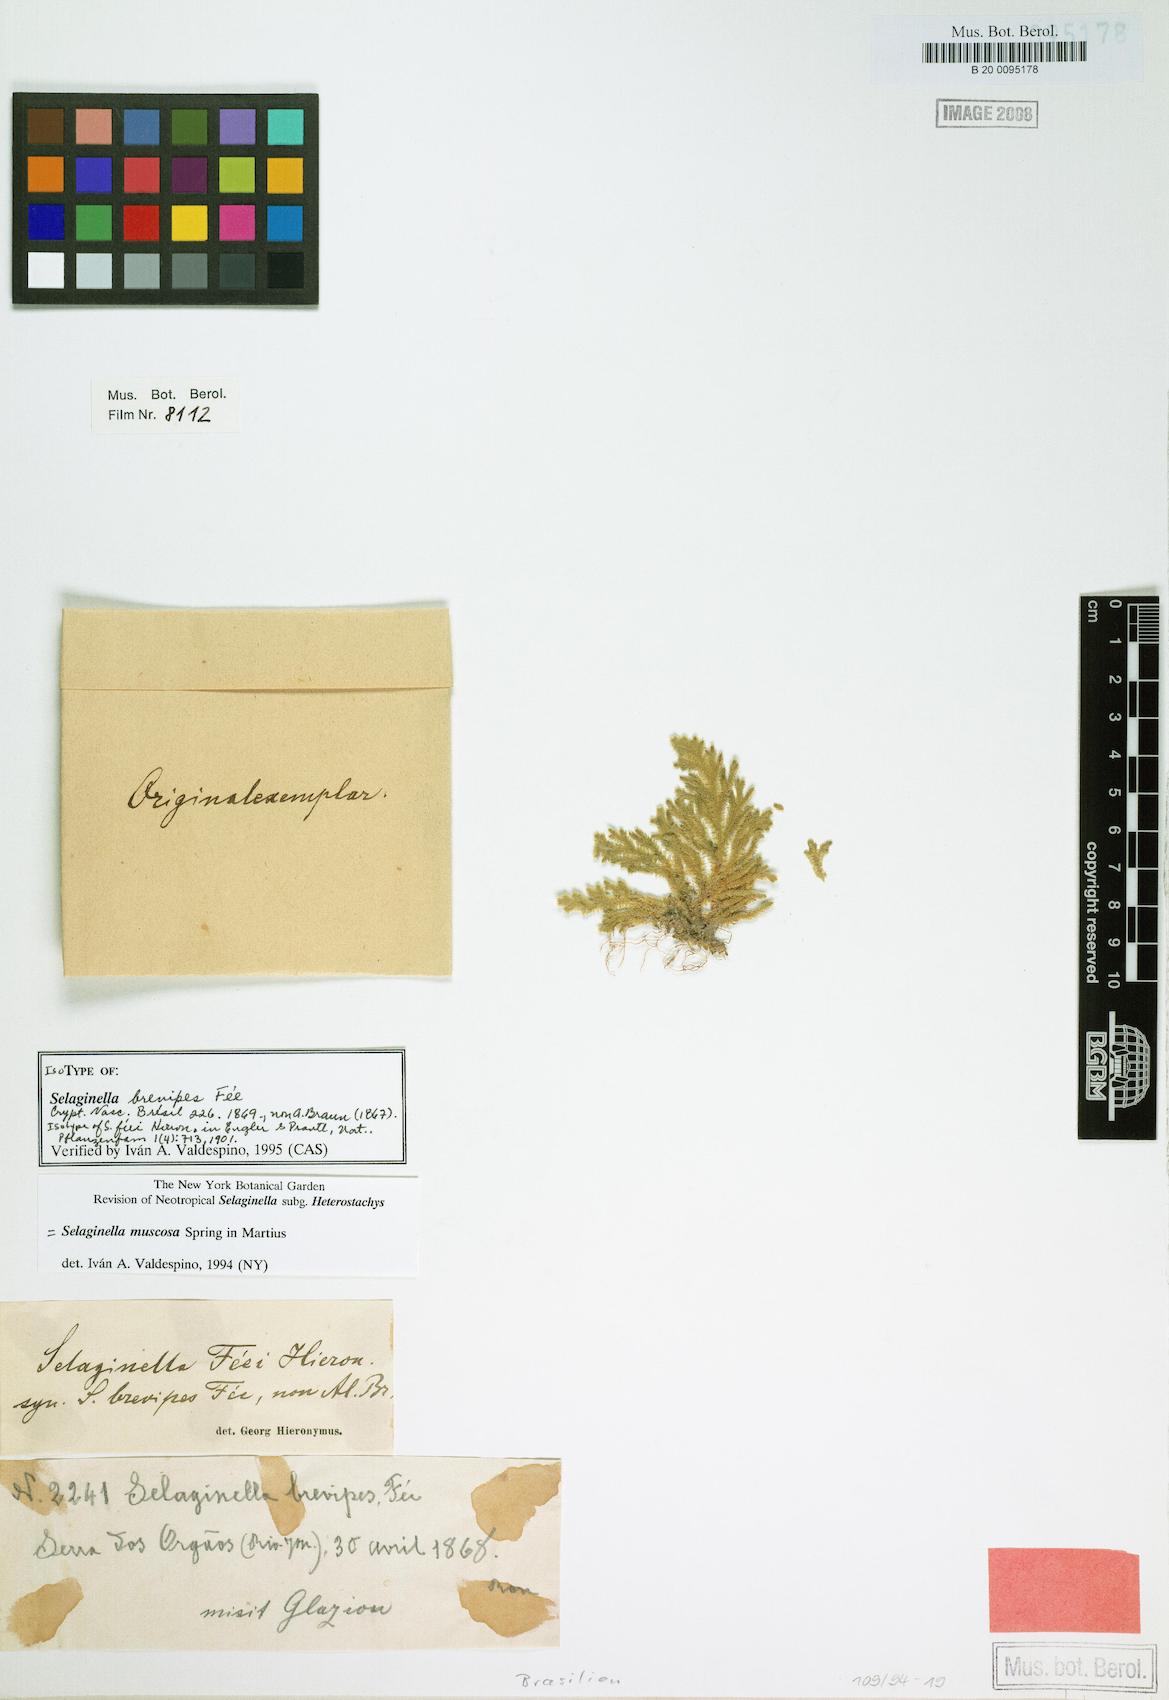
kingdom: Plantae
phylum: Tracheophyta
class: Lycopodiopsida
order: Selaginellales
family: Selaginellaceae
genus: Selaginella
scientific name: Selaginella muscosa
